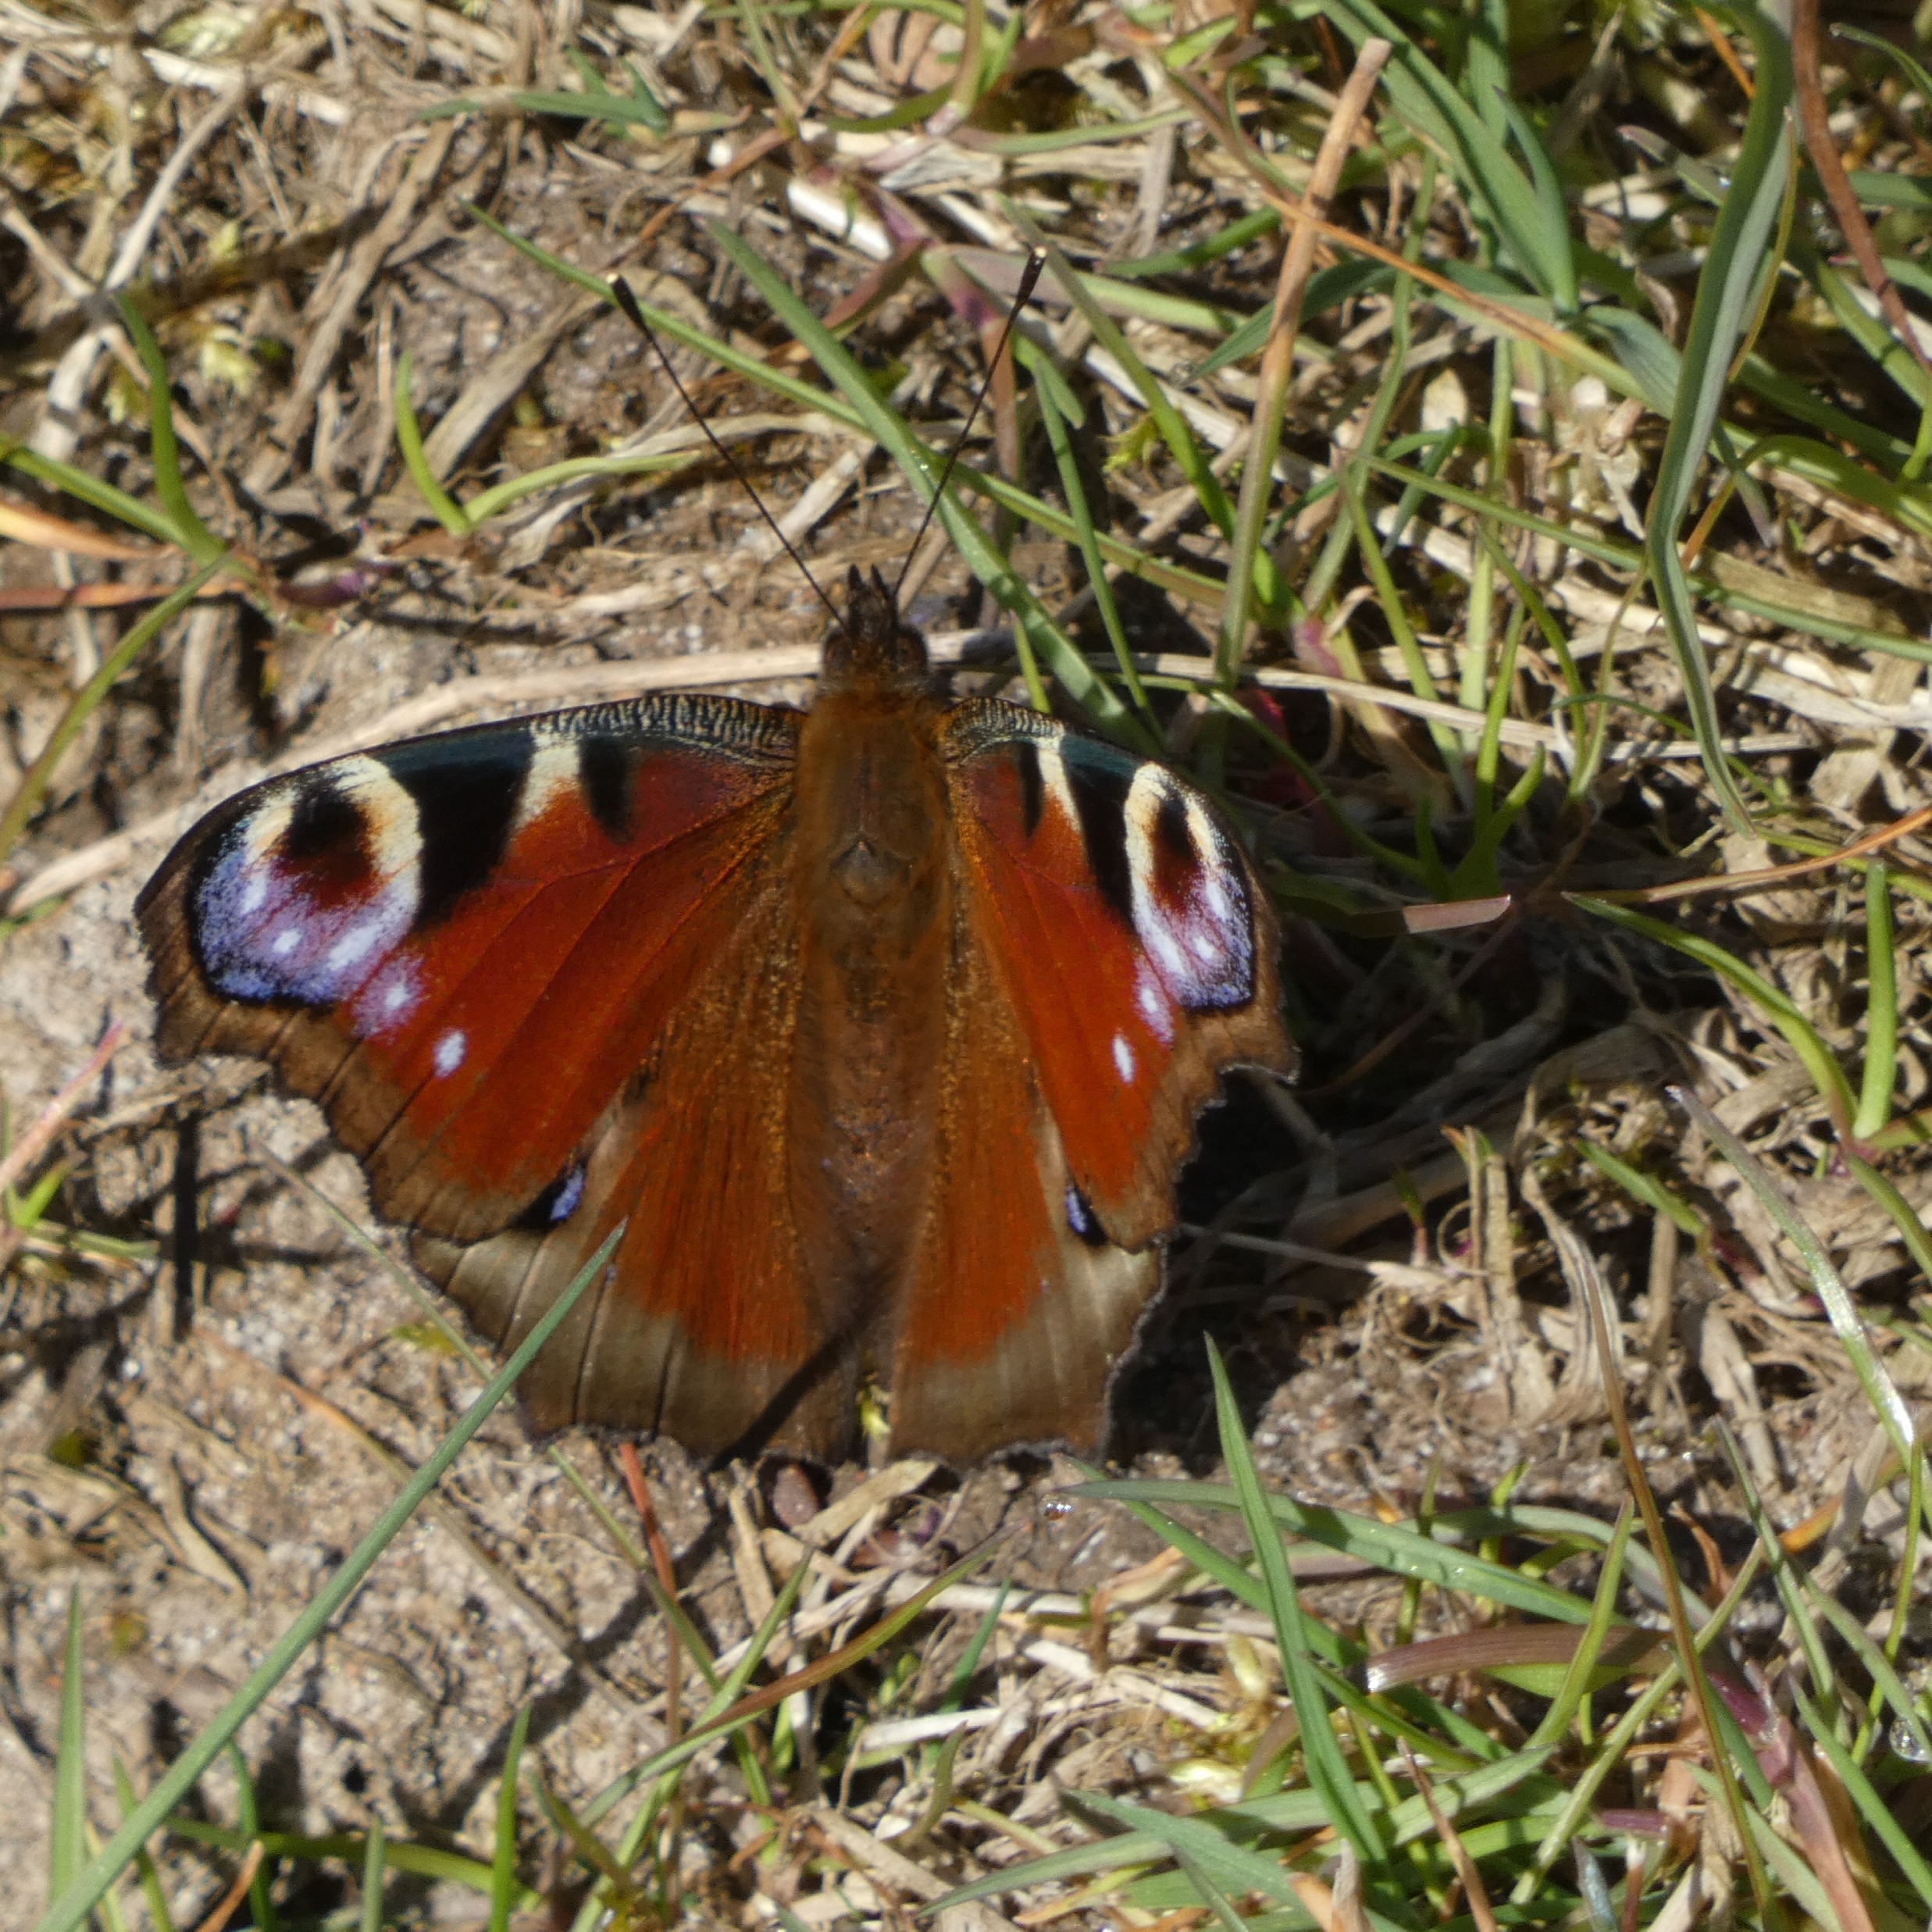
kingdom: Animalia
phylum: Arthropoda
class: Insecta
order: Lepidoptera
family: Nymphalidae
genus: Aglais
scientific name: Aglais io
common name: Dagpåfugleøje
